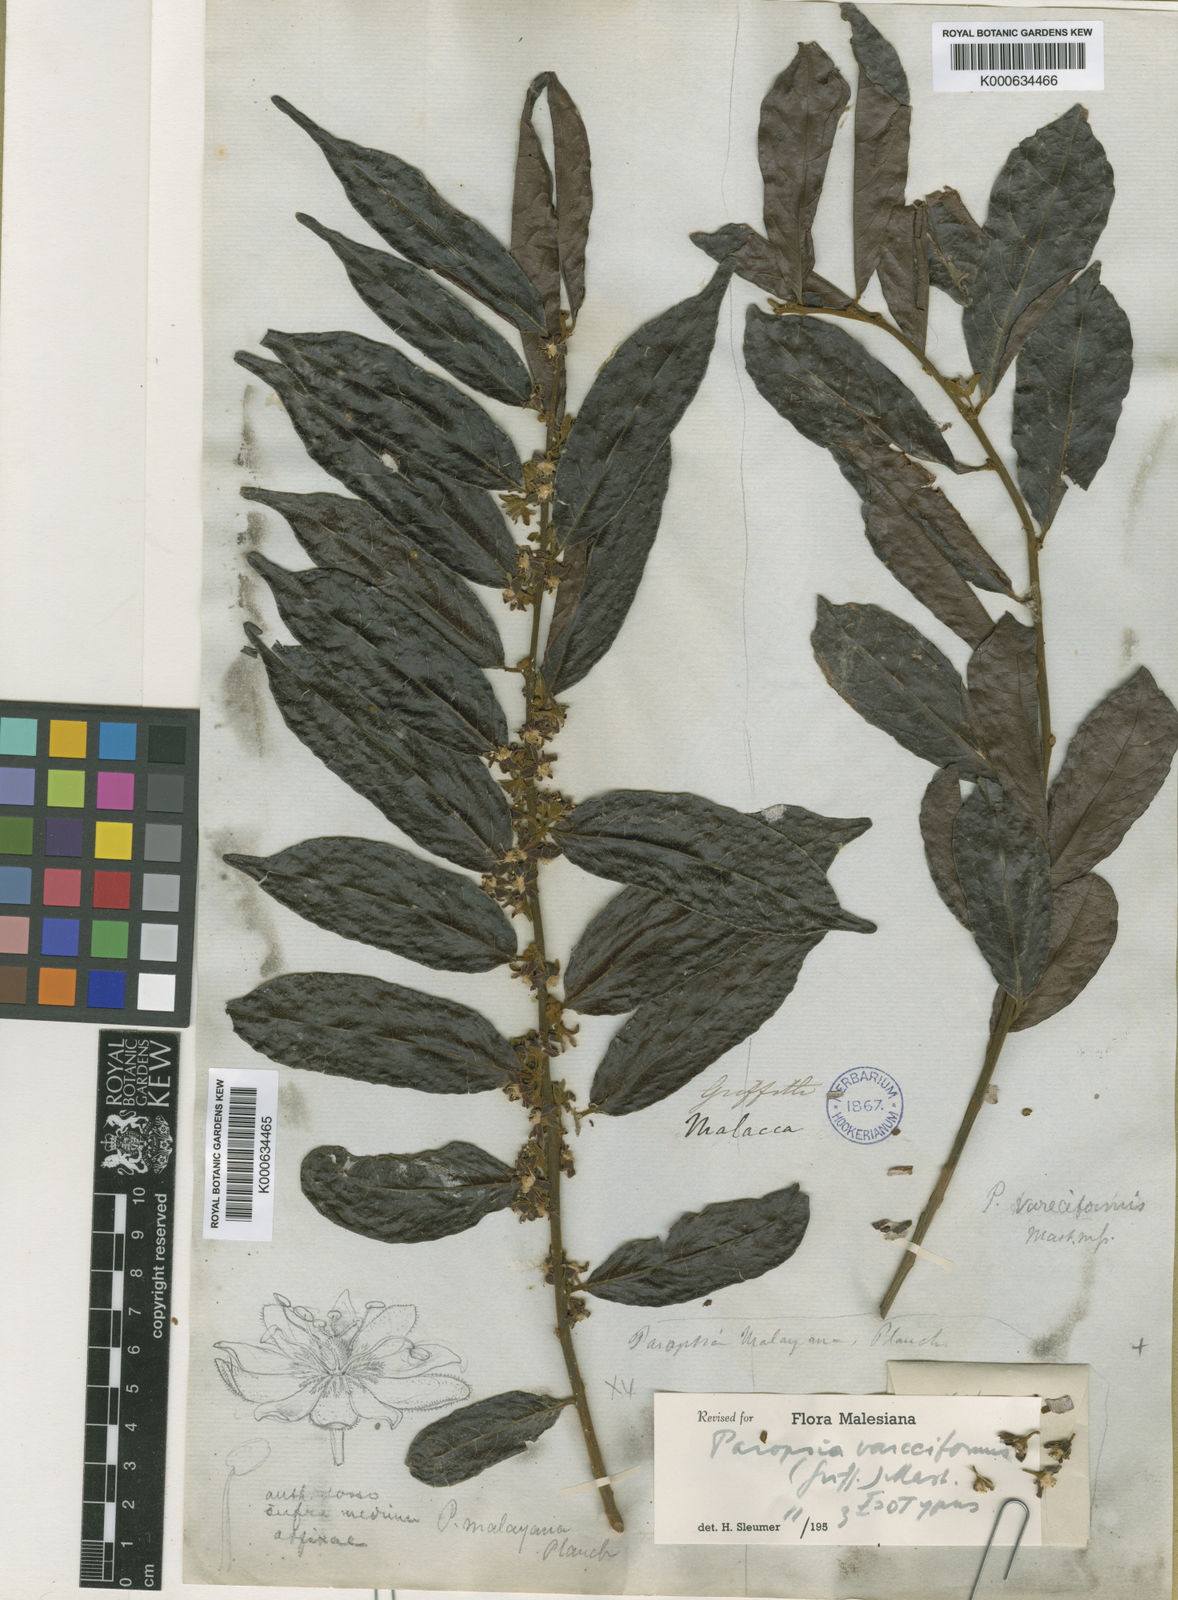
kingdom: Plantae
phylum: Tracheophyta
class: Magnoliopsida
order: Malpighiales
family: Passifloraceae
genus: Paropsia
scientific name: Paropsia vareciformis
